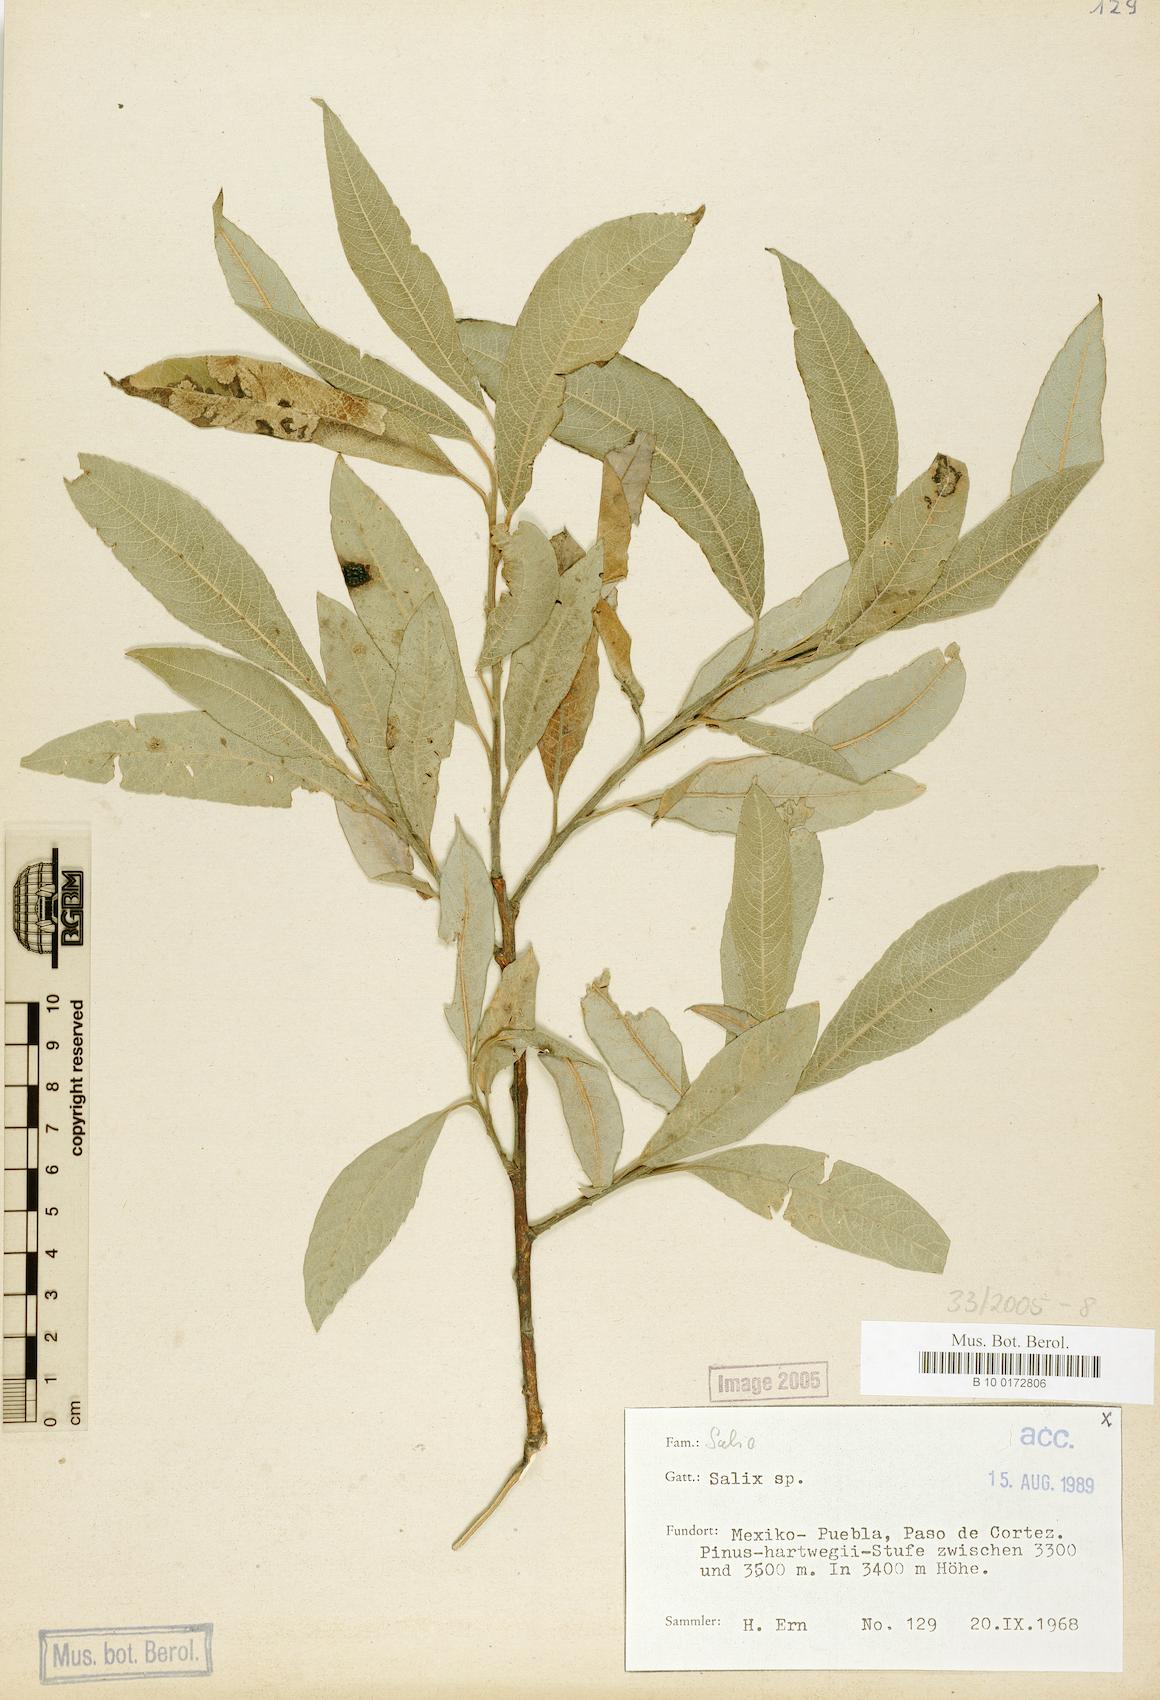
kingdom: Plantae
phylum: Tracheophyta
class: Magnoliopsida
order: Malpighiales
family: Salicaceae
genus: Salix
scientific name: Salix
